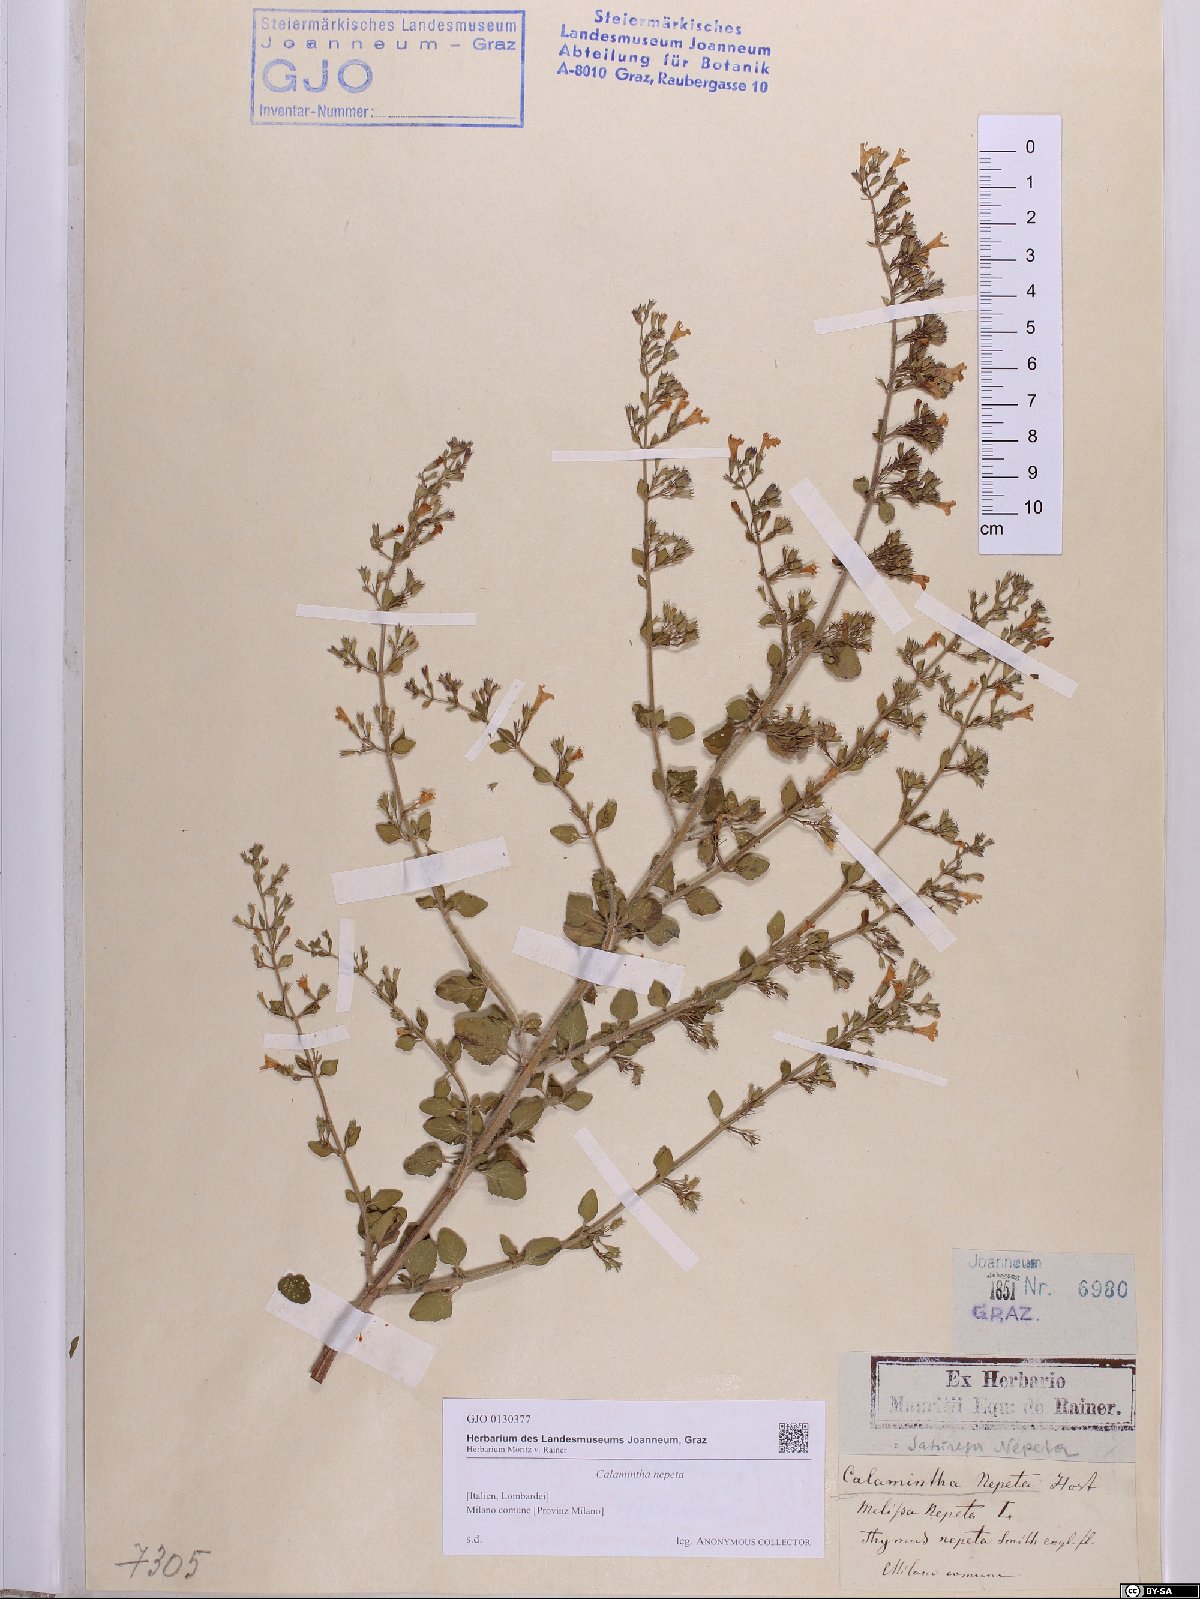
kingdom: Plantae
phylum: Tracheophyta
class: Magnoliopsida
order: Lamiales
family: Lamiaceae
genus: Clinopodium
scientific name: Clinopodium nepeta
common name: Lesser calamint
